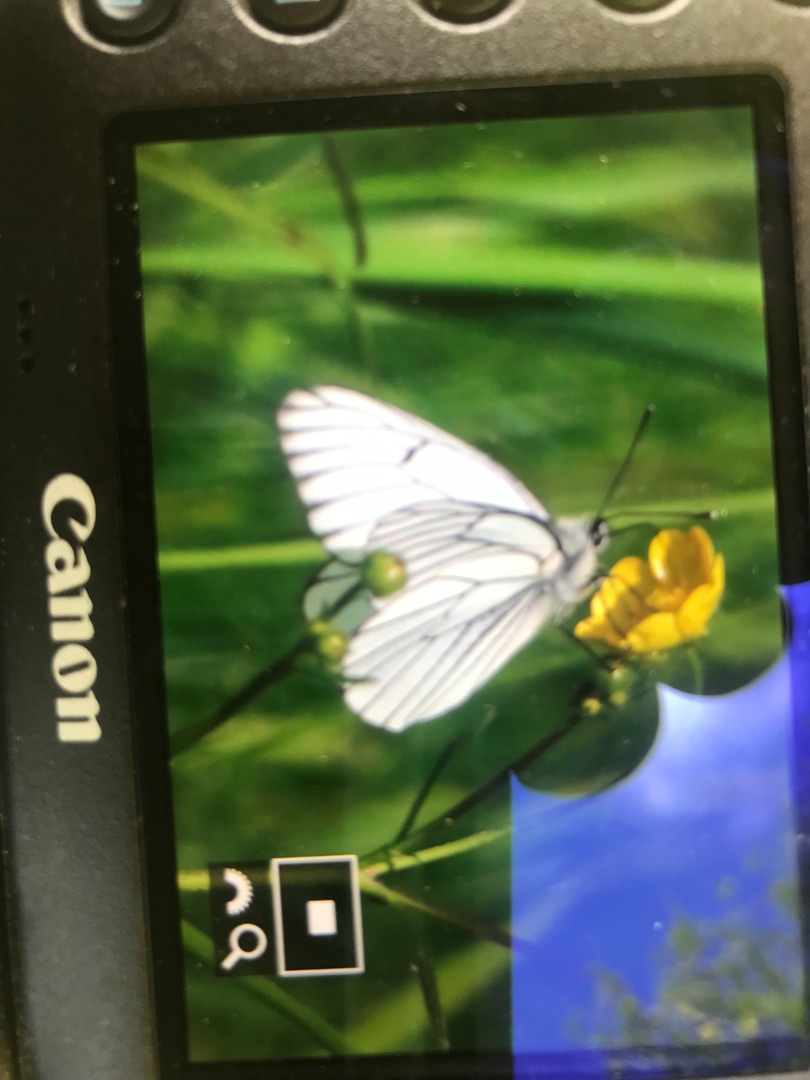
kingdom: Animalia
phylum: Arthropoda
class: Insecta
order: Lepidoptera
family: Pieridae
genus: Aporia
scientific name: Aporia crataegi
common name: Sortåret hvidvinge
